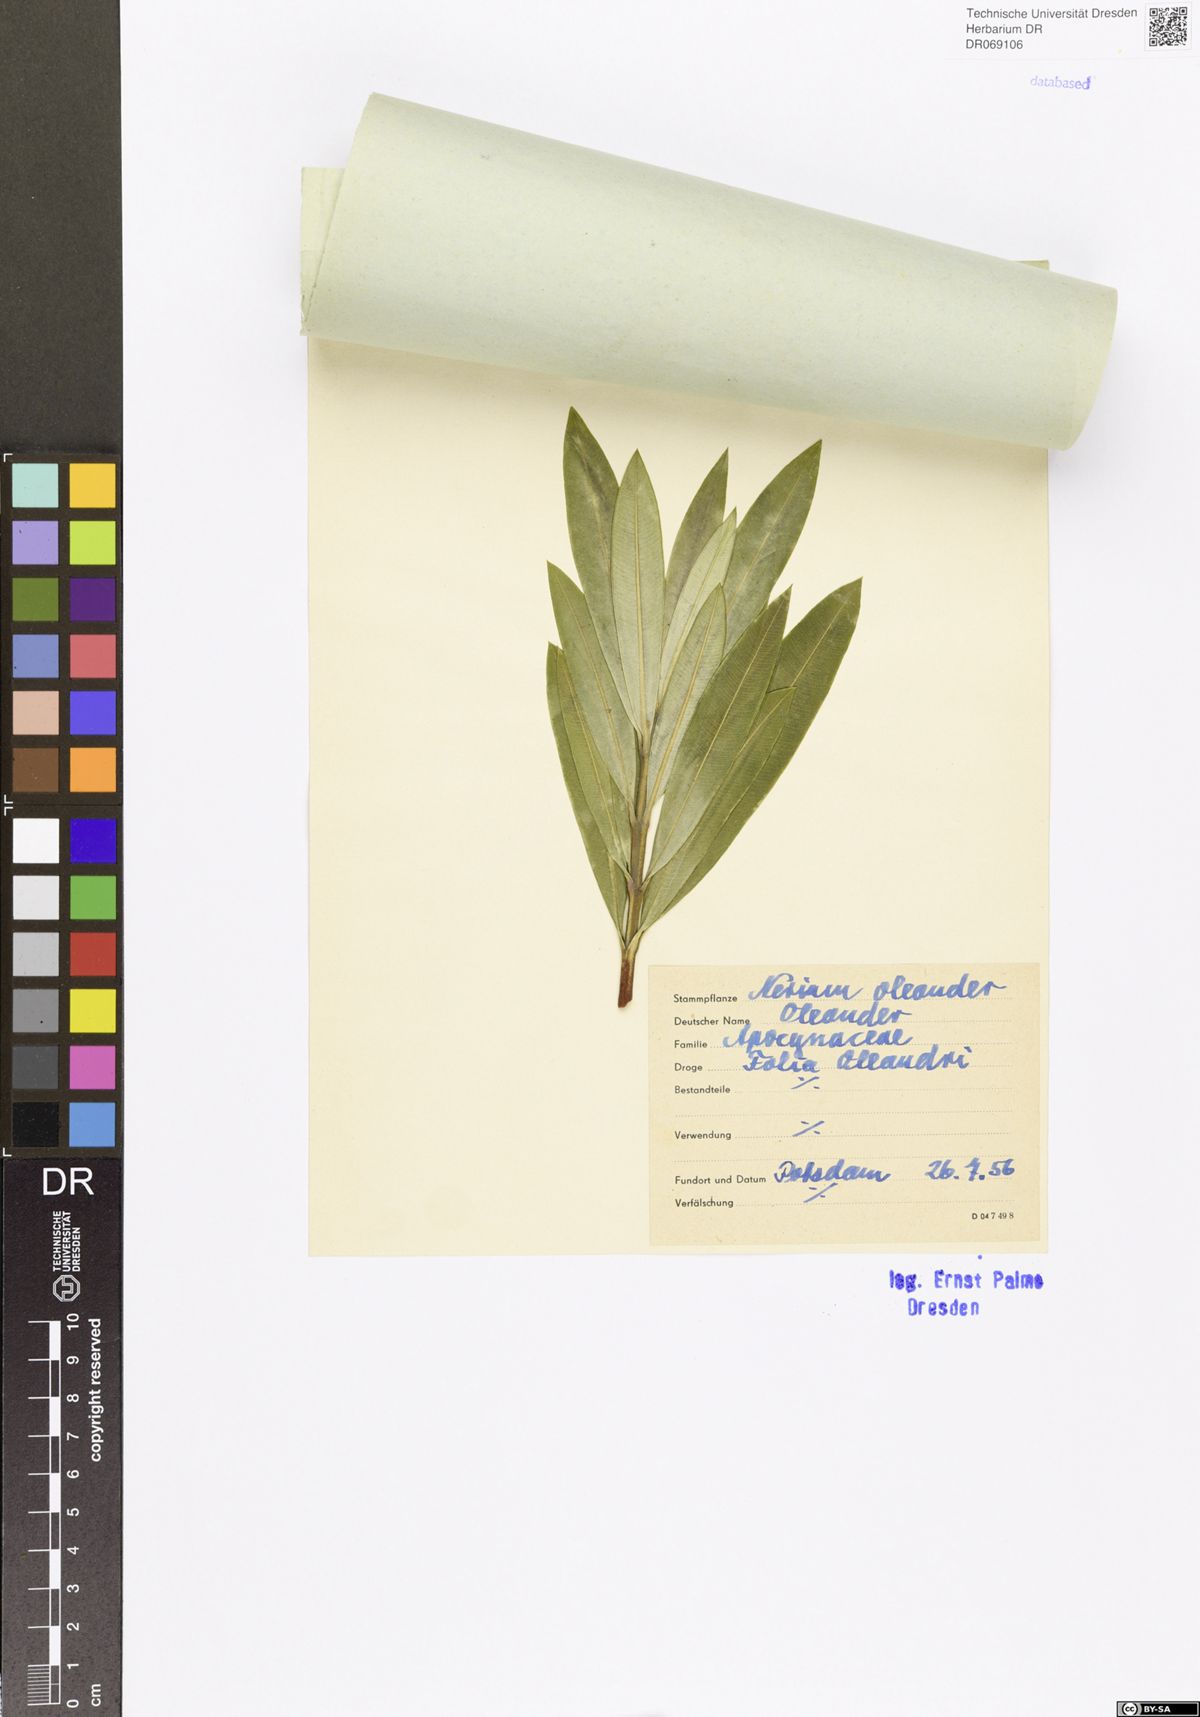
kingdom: Plantae
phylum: Tracheophyta
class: Magnoliopsida
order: Gentianales
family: Apocynaceae
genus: Nerium
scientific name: Nerium oleander
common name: Oleander
